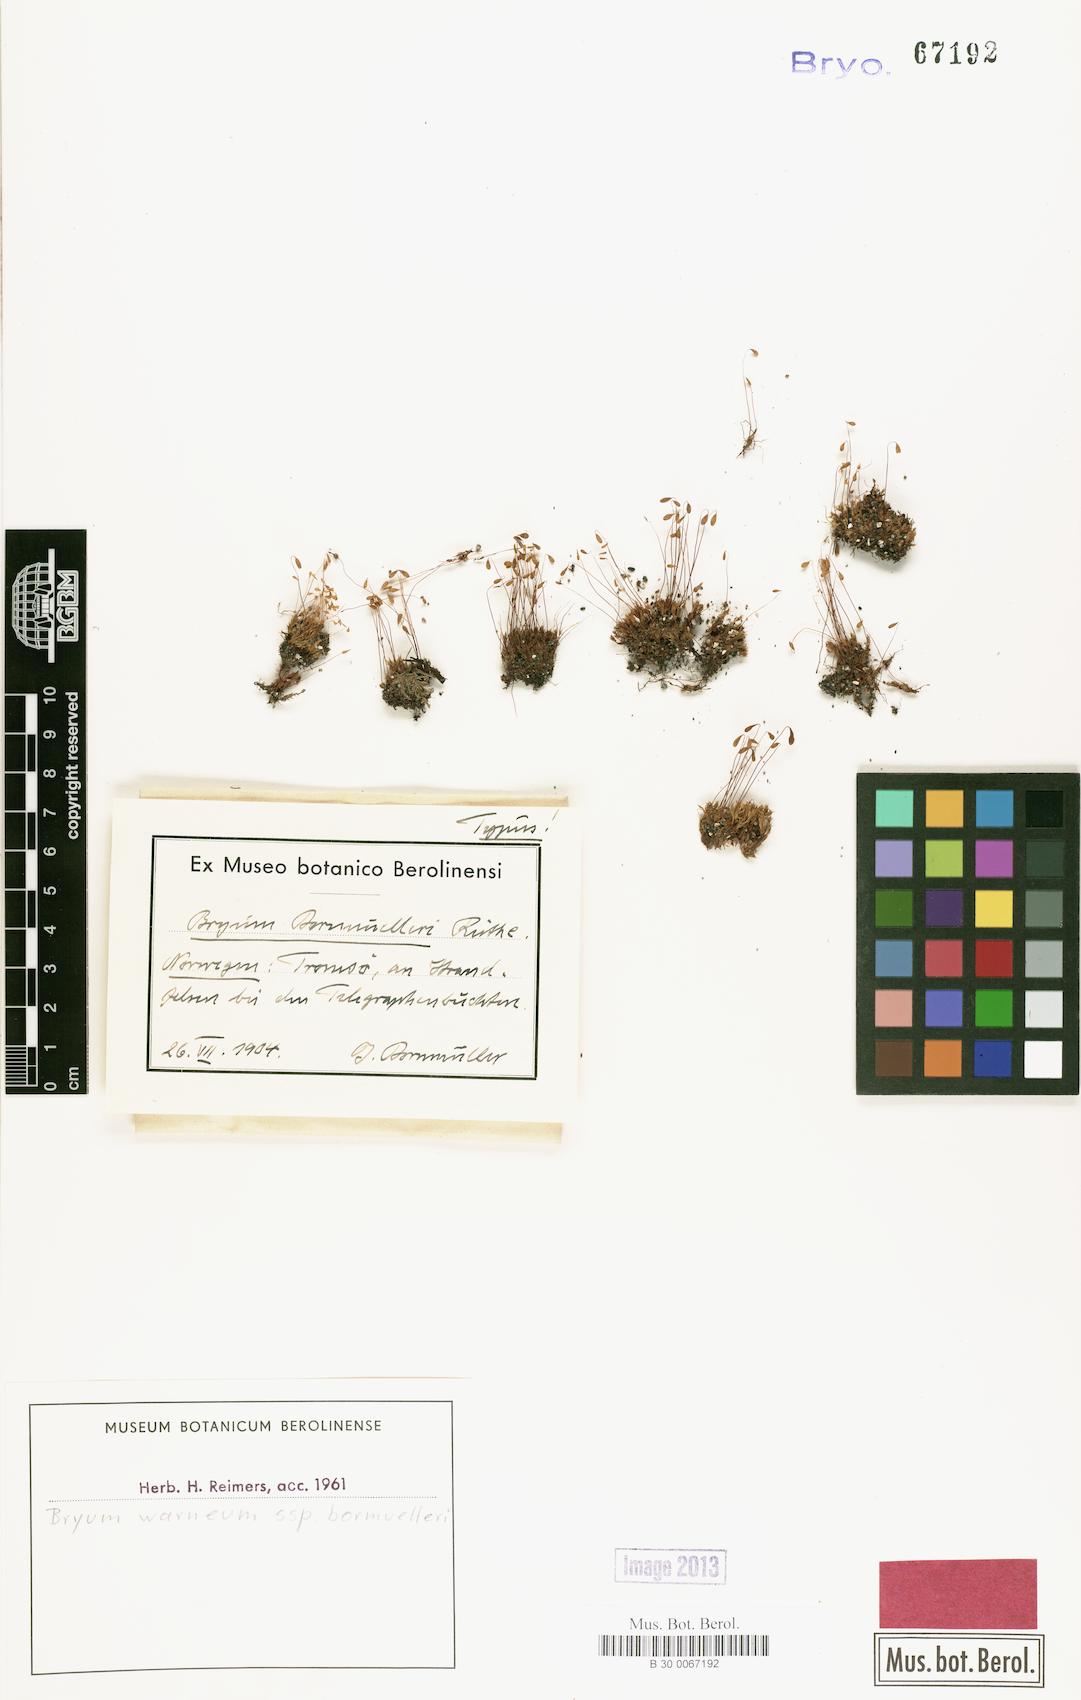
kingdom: Plantae
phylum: Bryophyta
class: Bryopsida
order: Bryales
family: Bryaceae
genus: Ptychostomum
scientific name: Ptychostomum warneum
